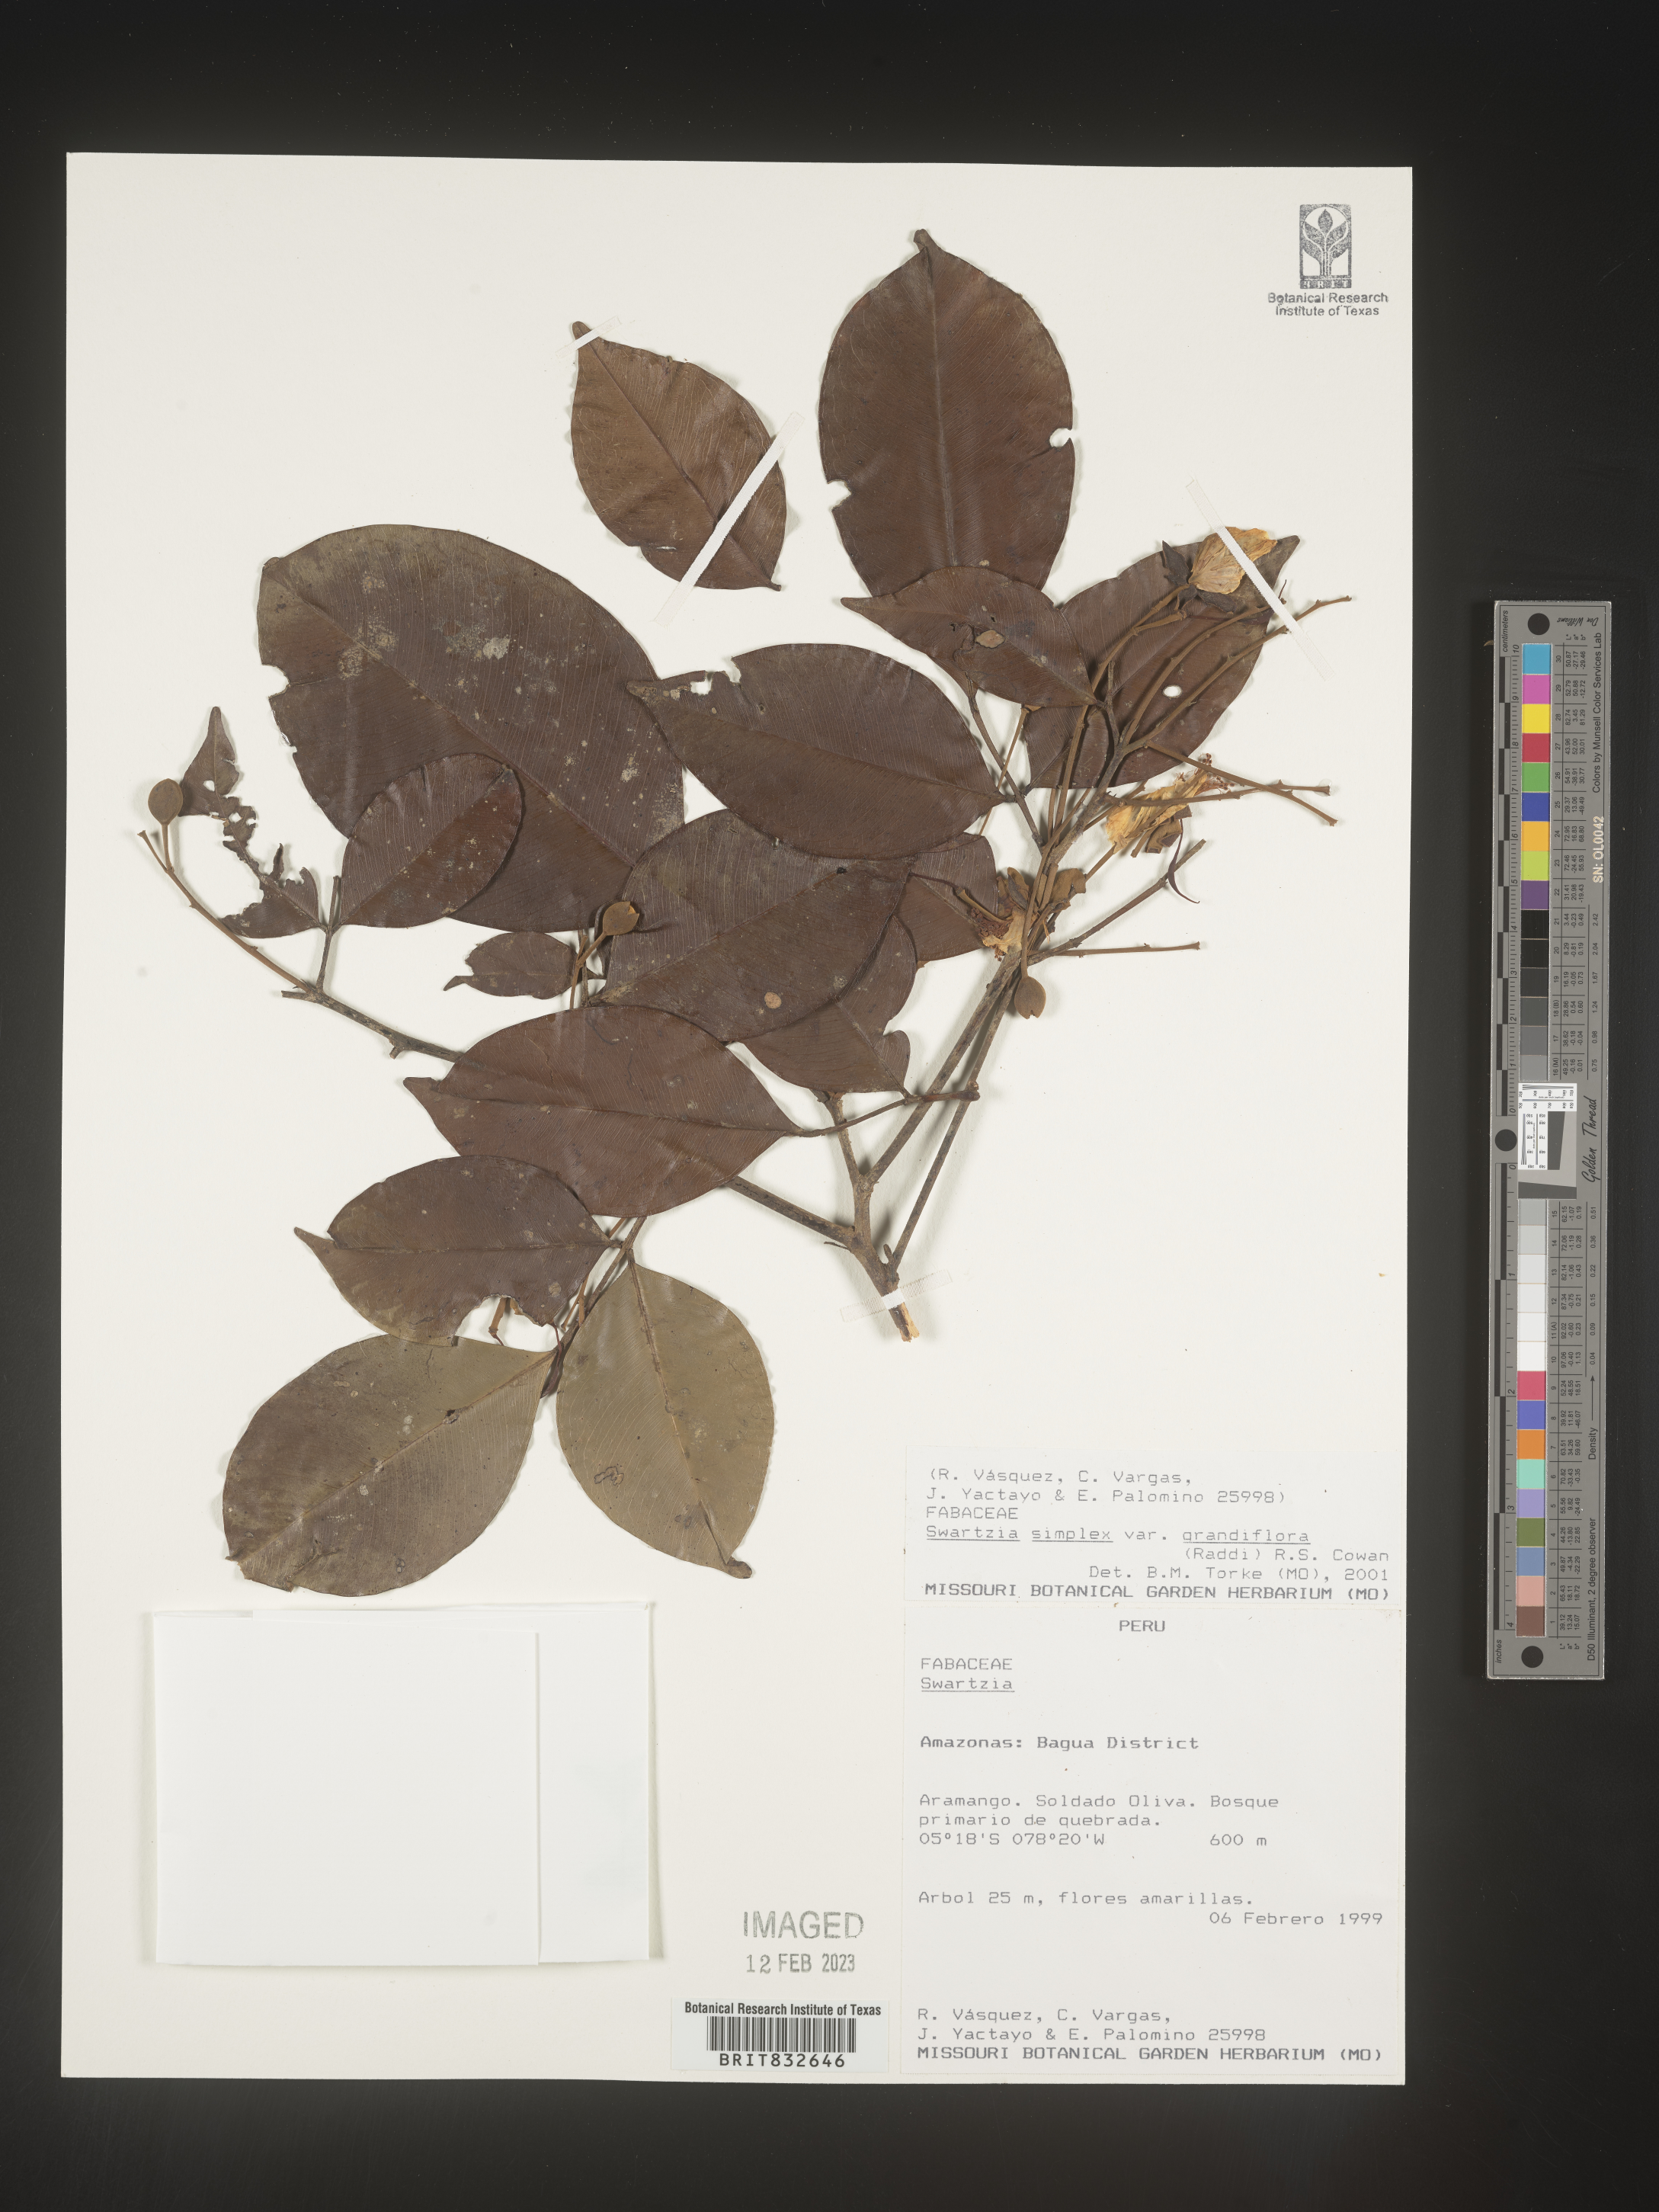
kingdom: Plantae
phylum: Tracheophyta
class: Magnoliopsida
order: Fabales
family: Fabaceae
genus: Swartzia
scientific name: Swartzia
